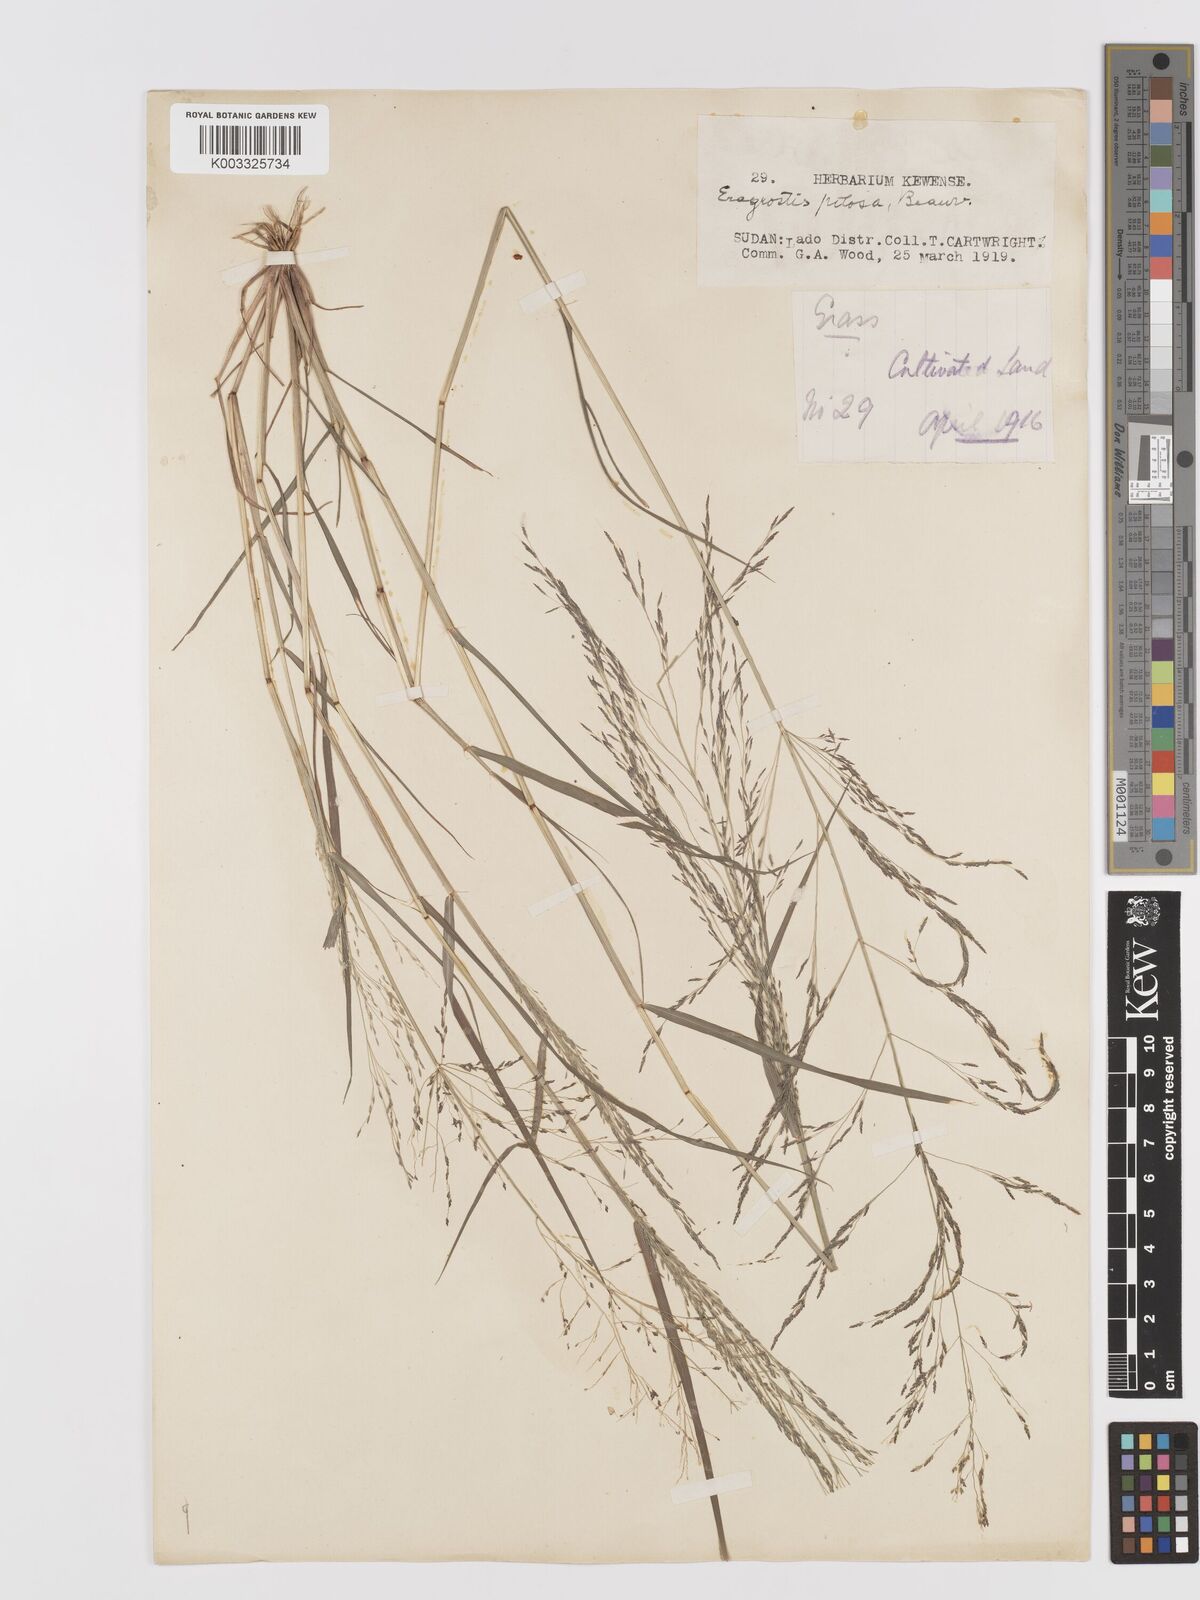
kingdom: Plantae
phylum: Tracheophyta
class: Liliopsida
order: Poales
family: Poaceae
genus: Eragrostis
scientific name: Eragrostis pilosa
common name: Indian lovegrass
